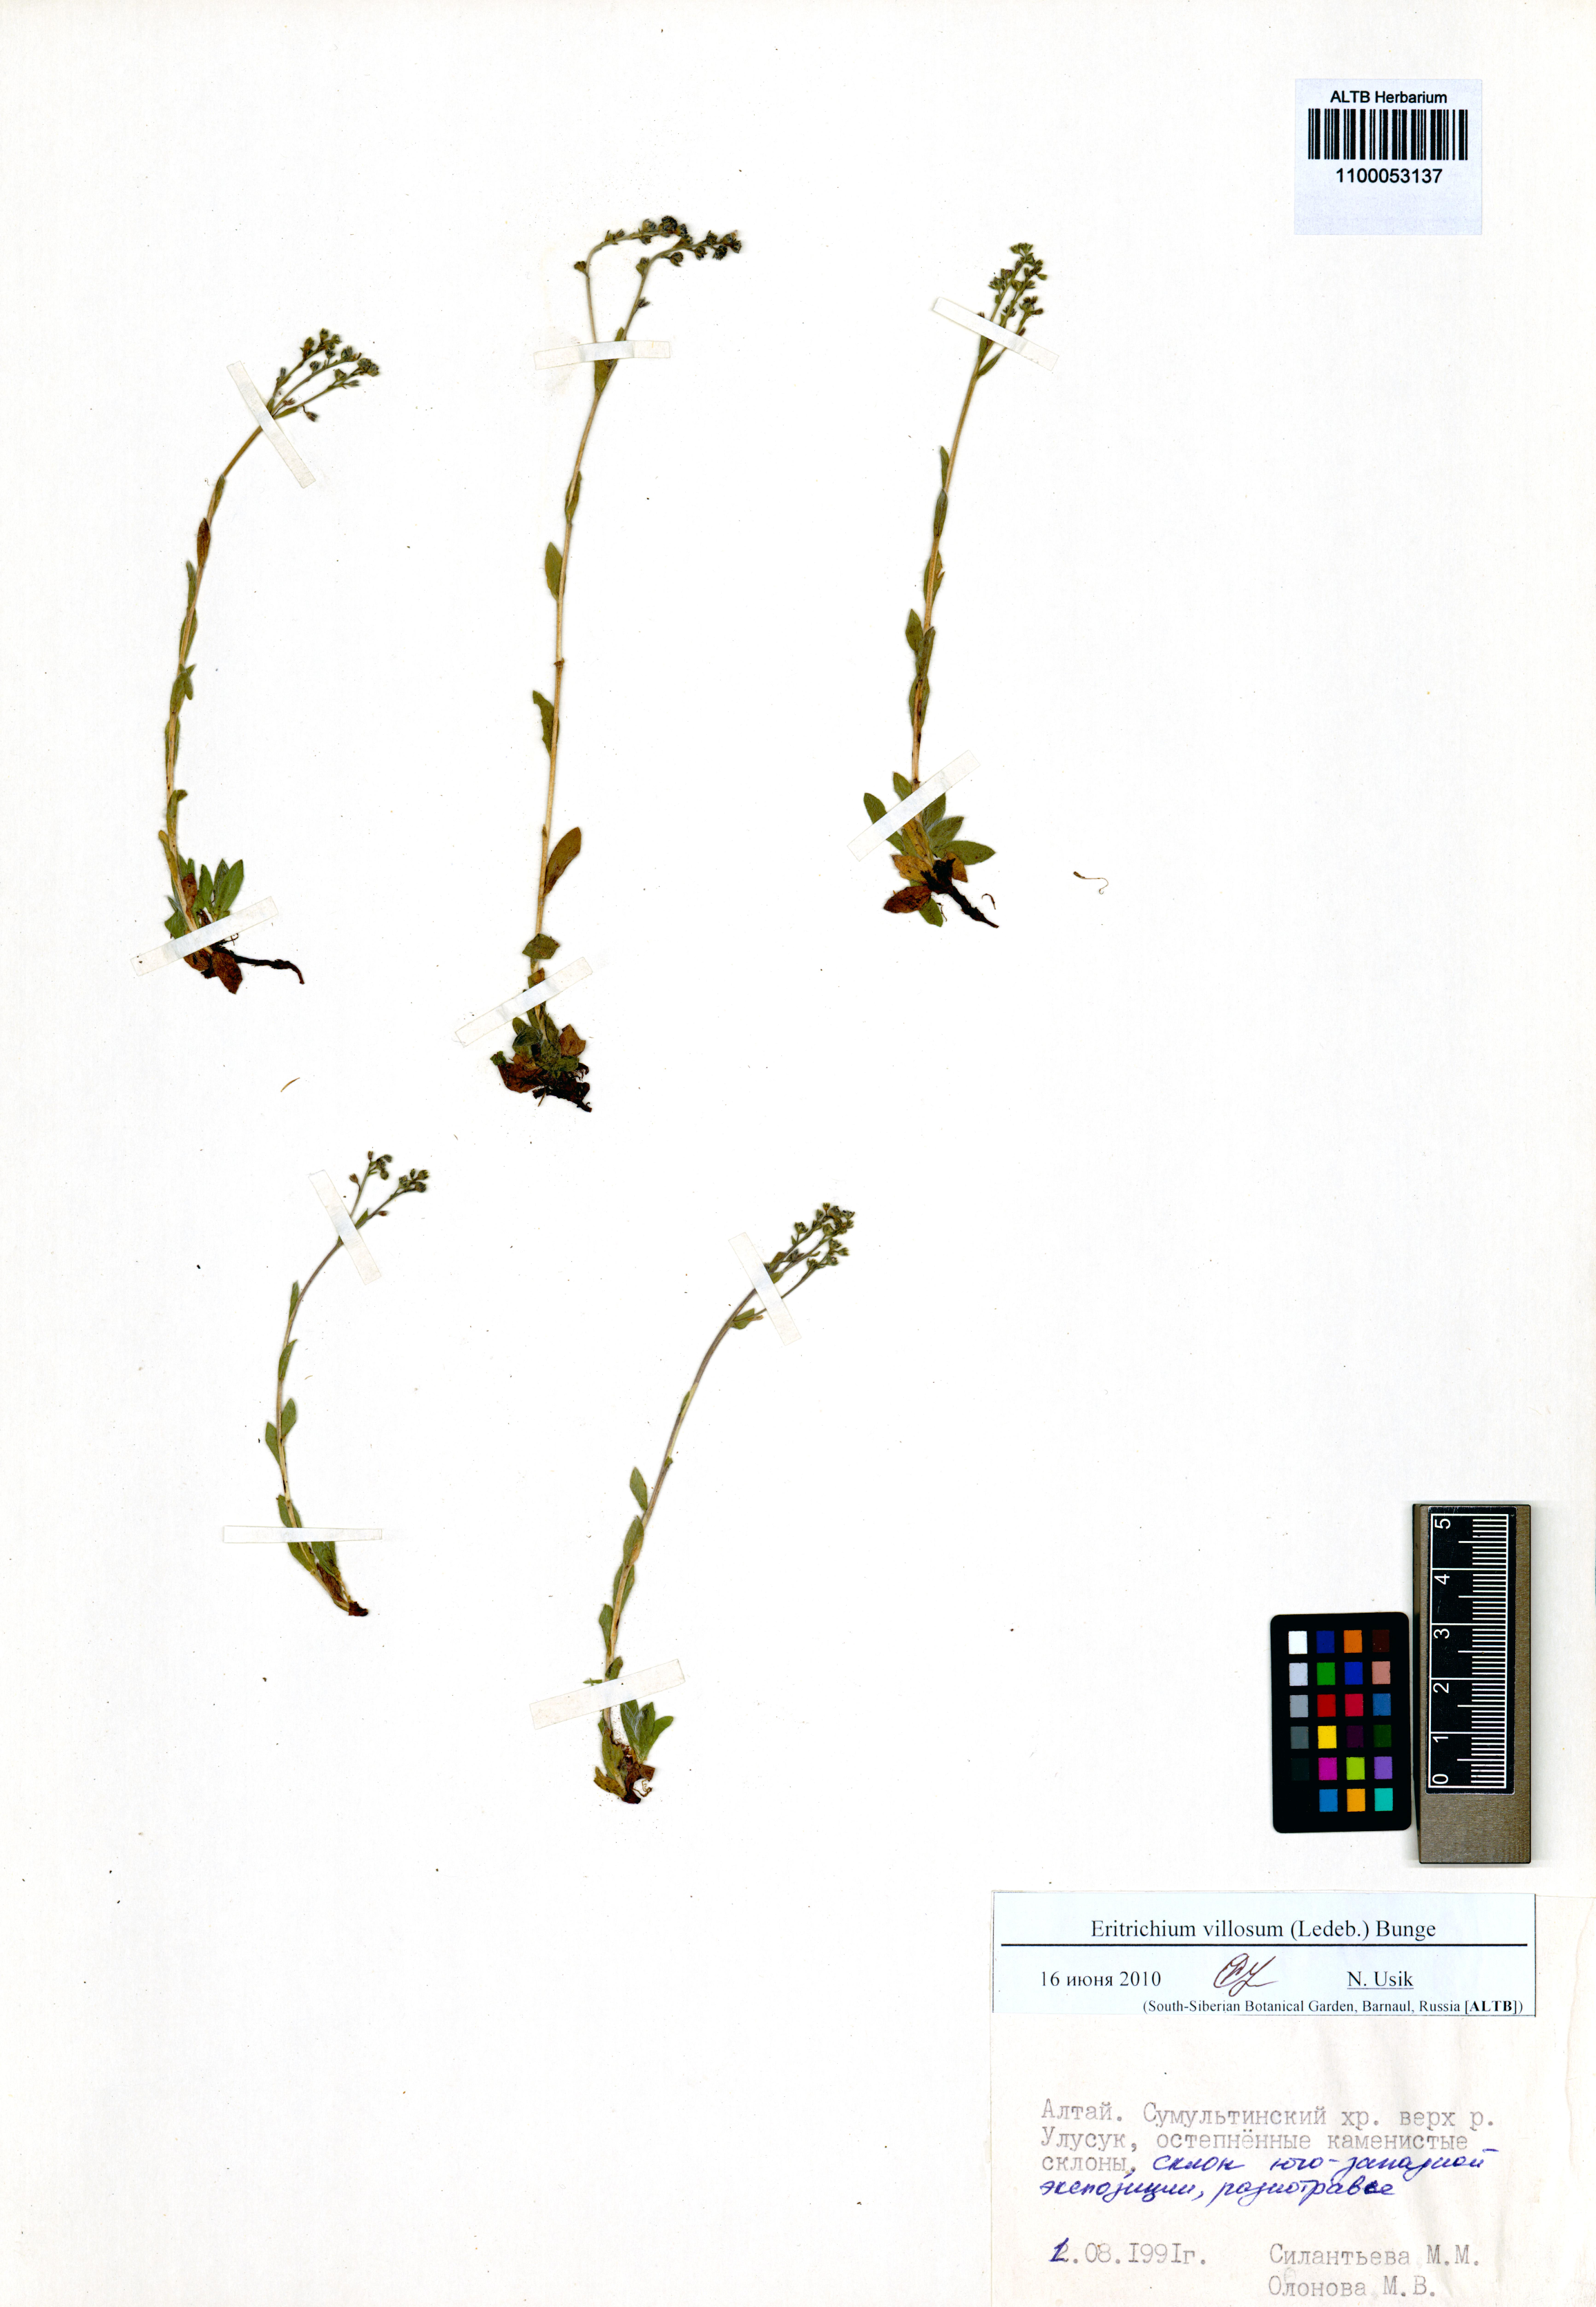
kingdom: Plantae
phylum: Tracheophyta
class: Magnoliopsida
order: Boraginales
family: Boraginaceae
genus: Eritrichium
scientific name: Eritrichium villosum
